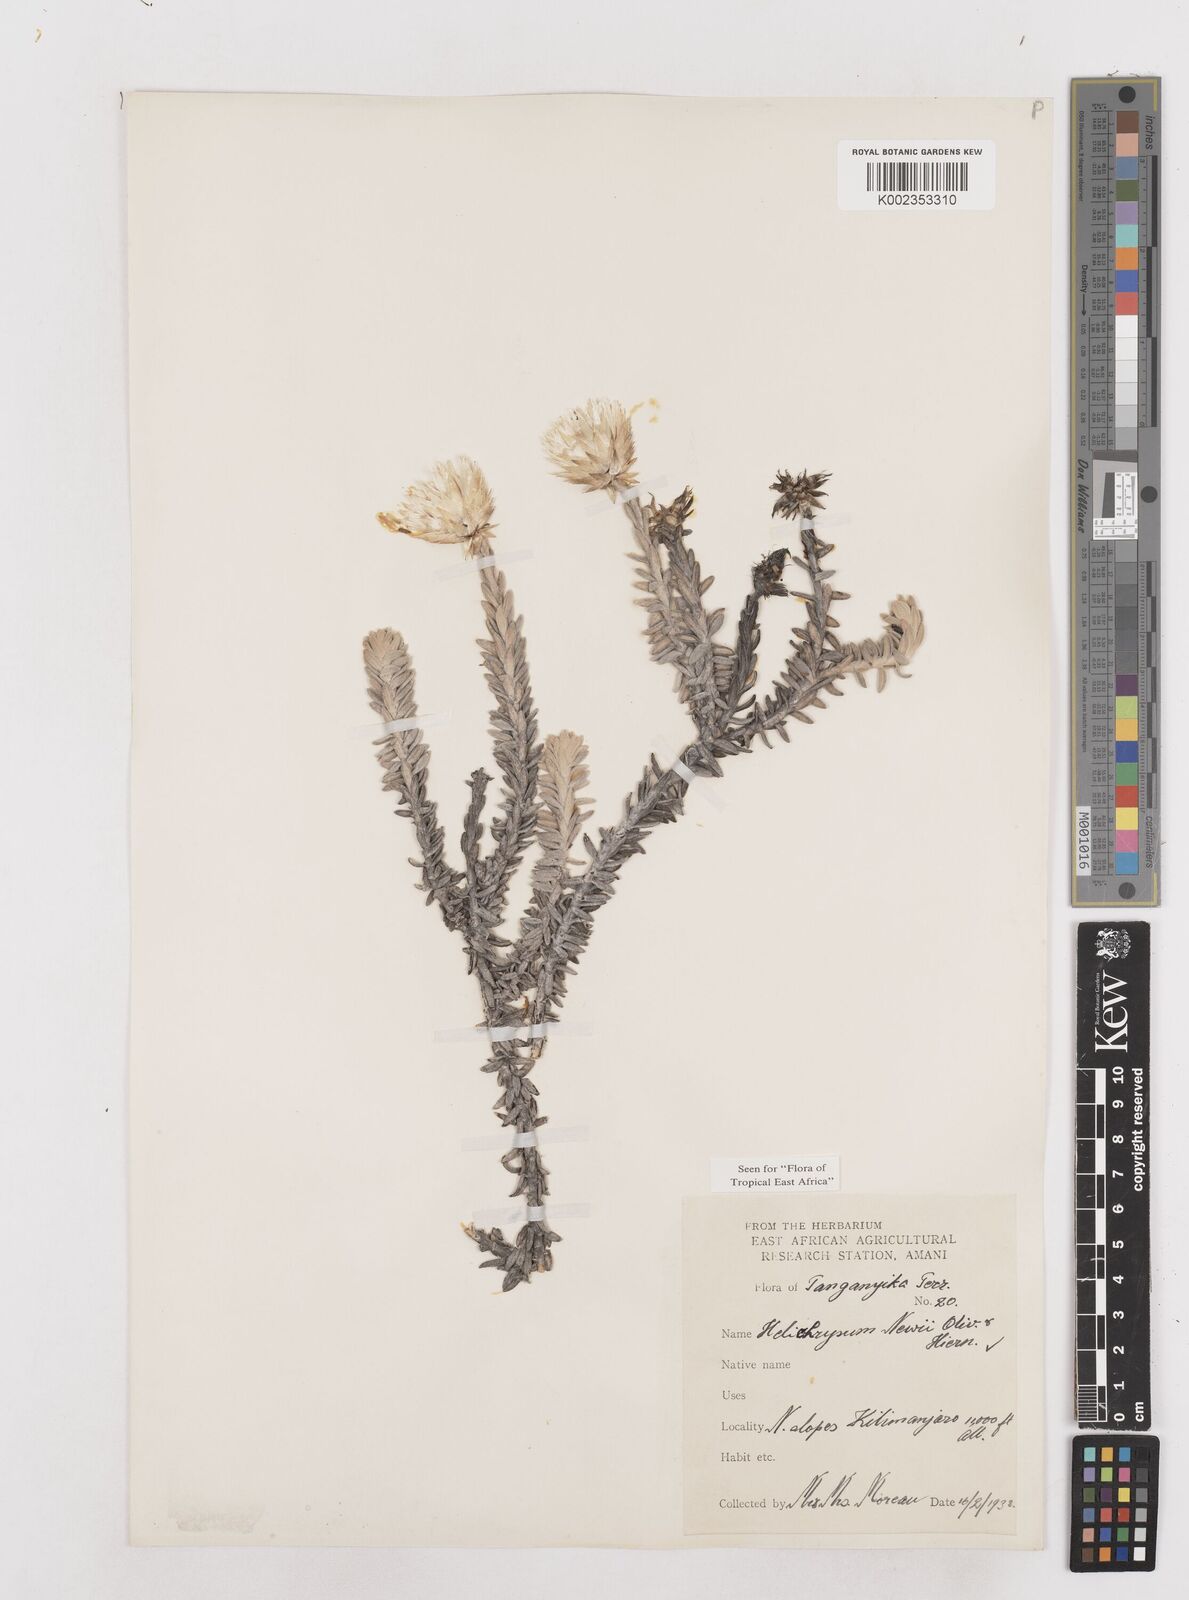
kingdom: Plantae
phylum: Tracheophyta
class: Magnoliopsida
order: Asterales
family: Asteraceae
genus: Helichrysum
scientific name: Helichrysum newii
